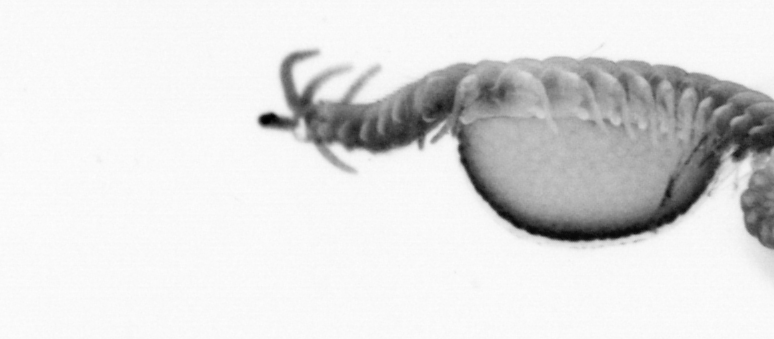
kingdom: Animalia
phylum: Annelida
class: Polychaeta
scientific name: Polychaeta
